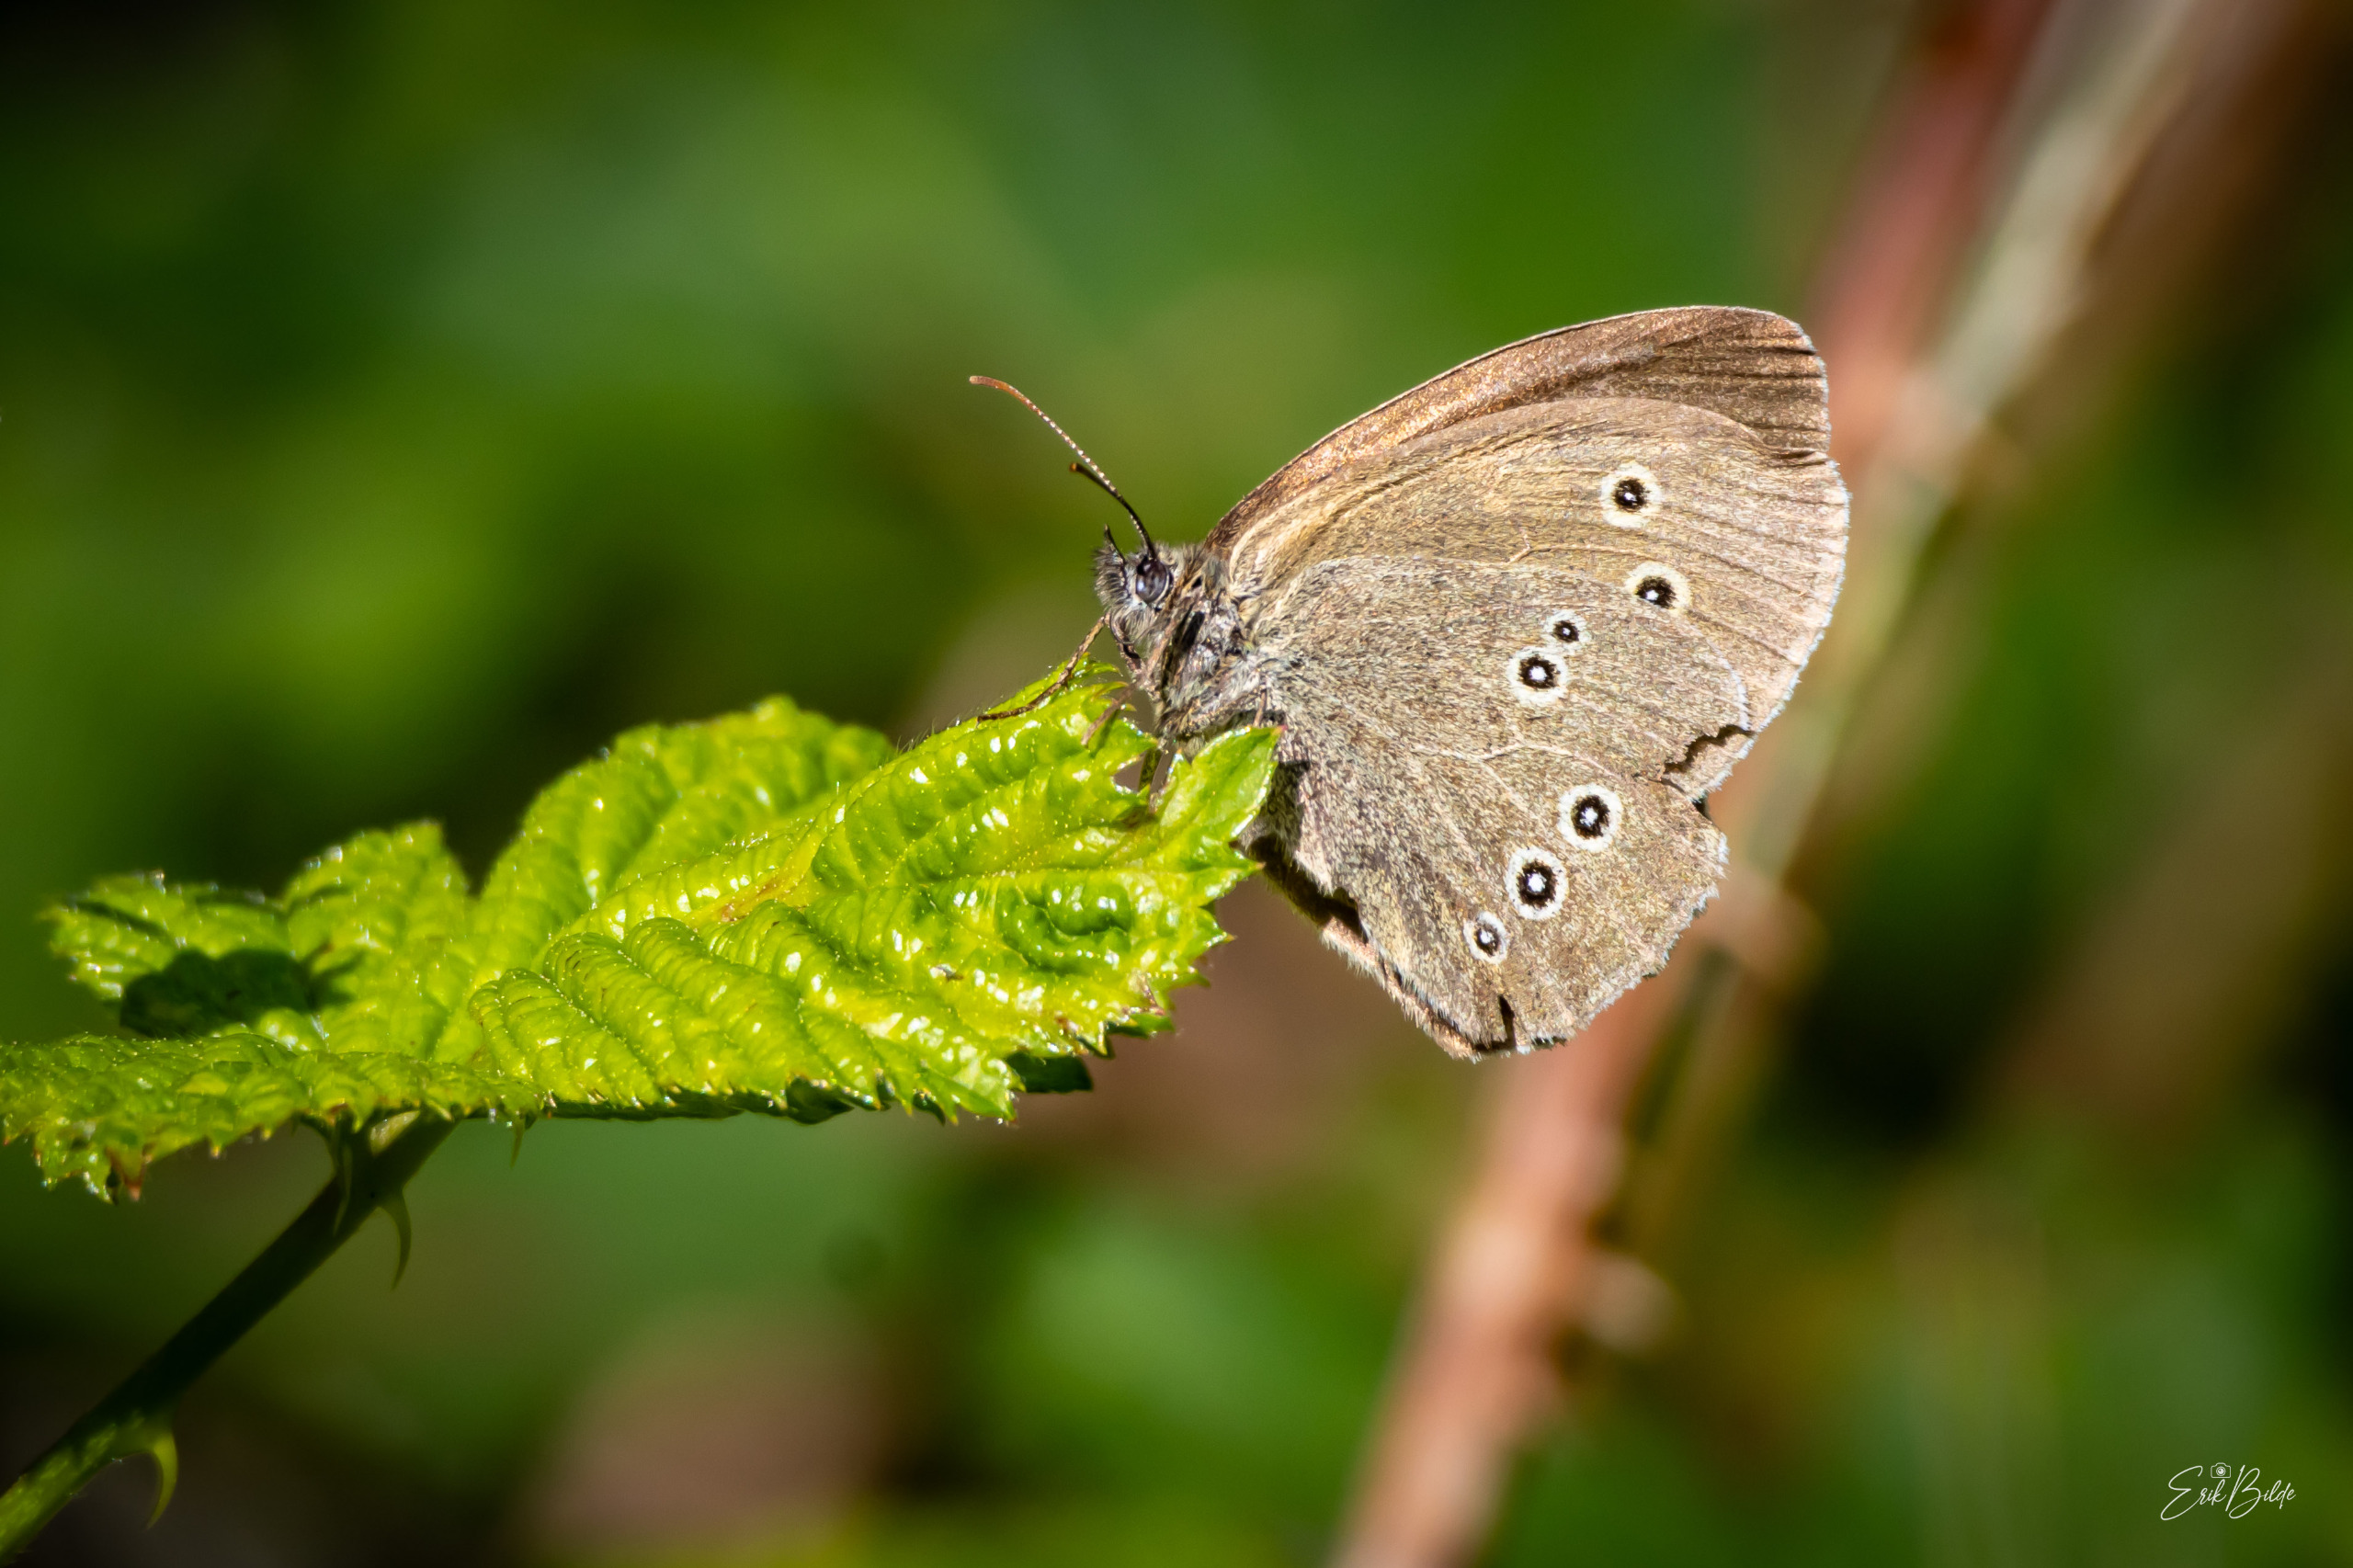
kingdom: Animalia
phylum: Arthropoda
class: Insecta
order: Lepidoptera
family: Nymphalidae
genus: Aphantopus
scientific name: Aphantopus hyperantus
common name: Engrandøje
